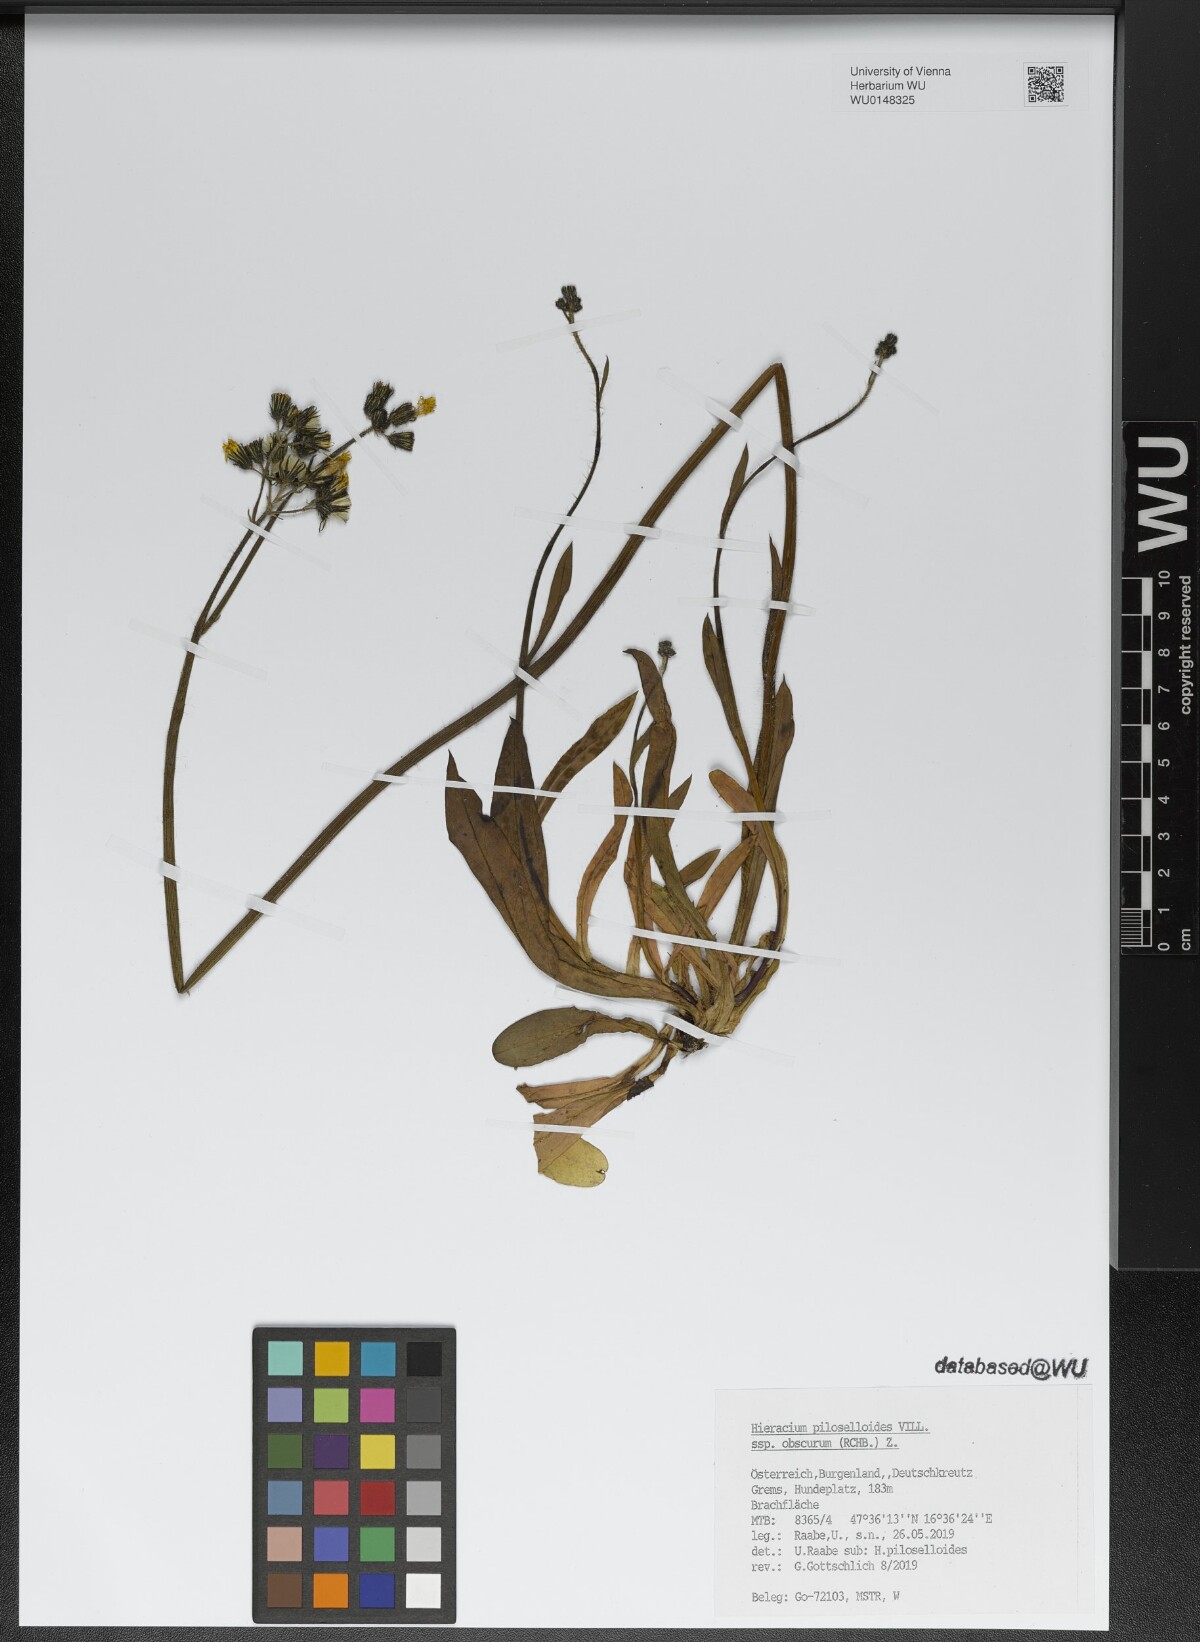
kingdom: Plantae
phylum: Tracheophyta
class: Magnoliopsida
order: Asterales
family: Asteraceae
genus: Pilosella
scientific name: Pilosella piloselloides
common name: Glaucous king-devil
